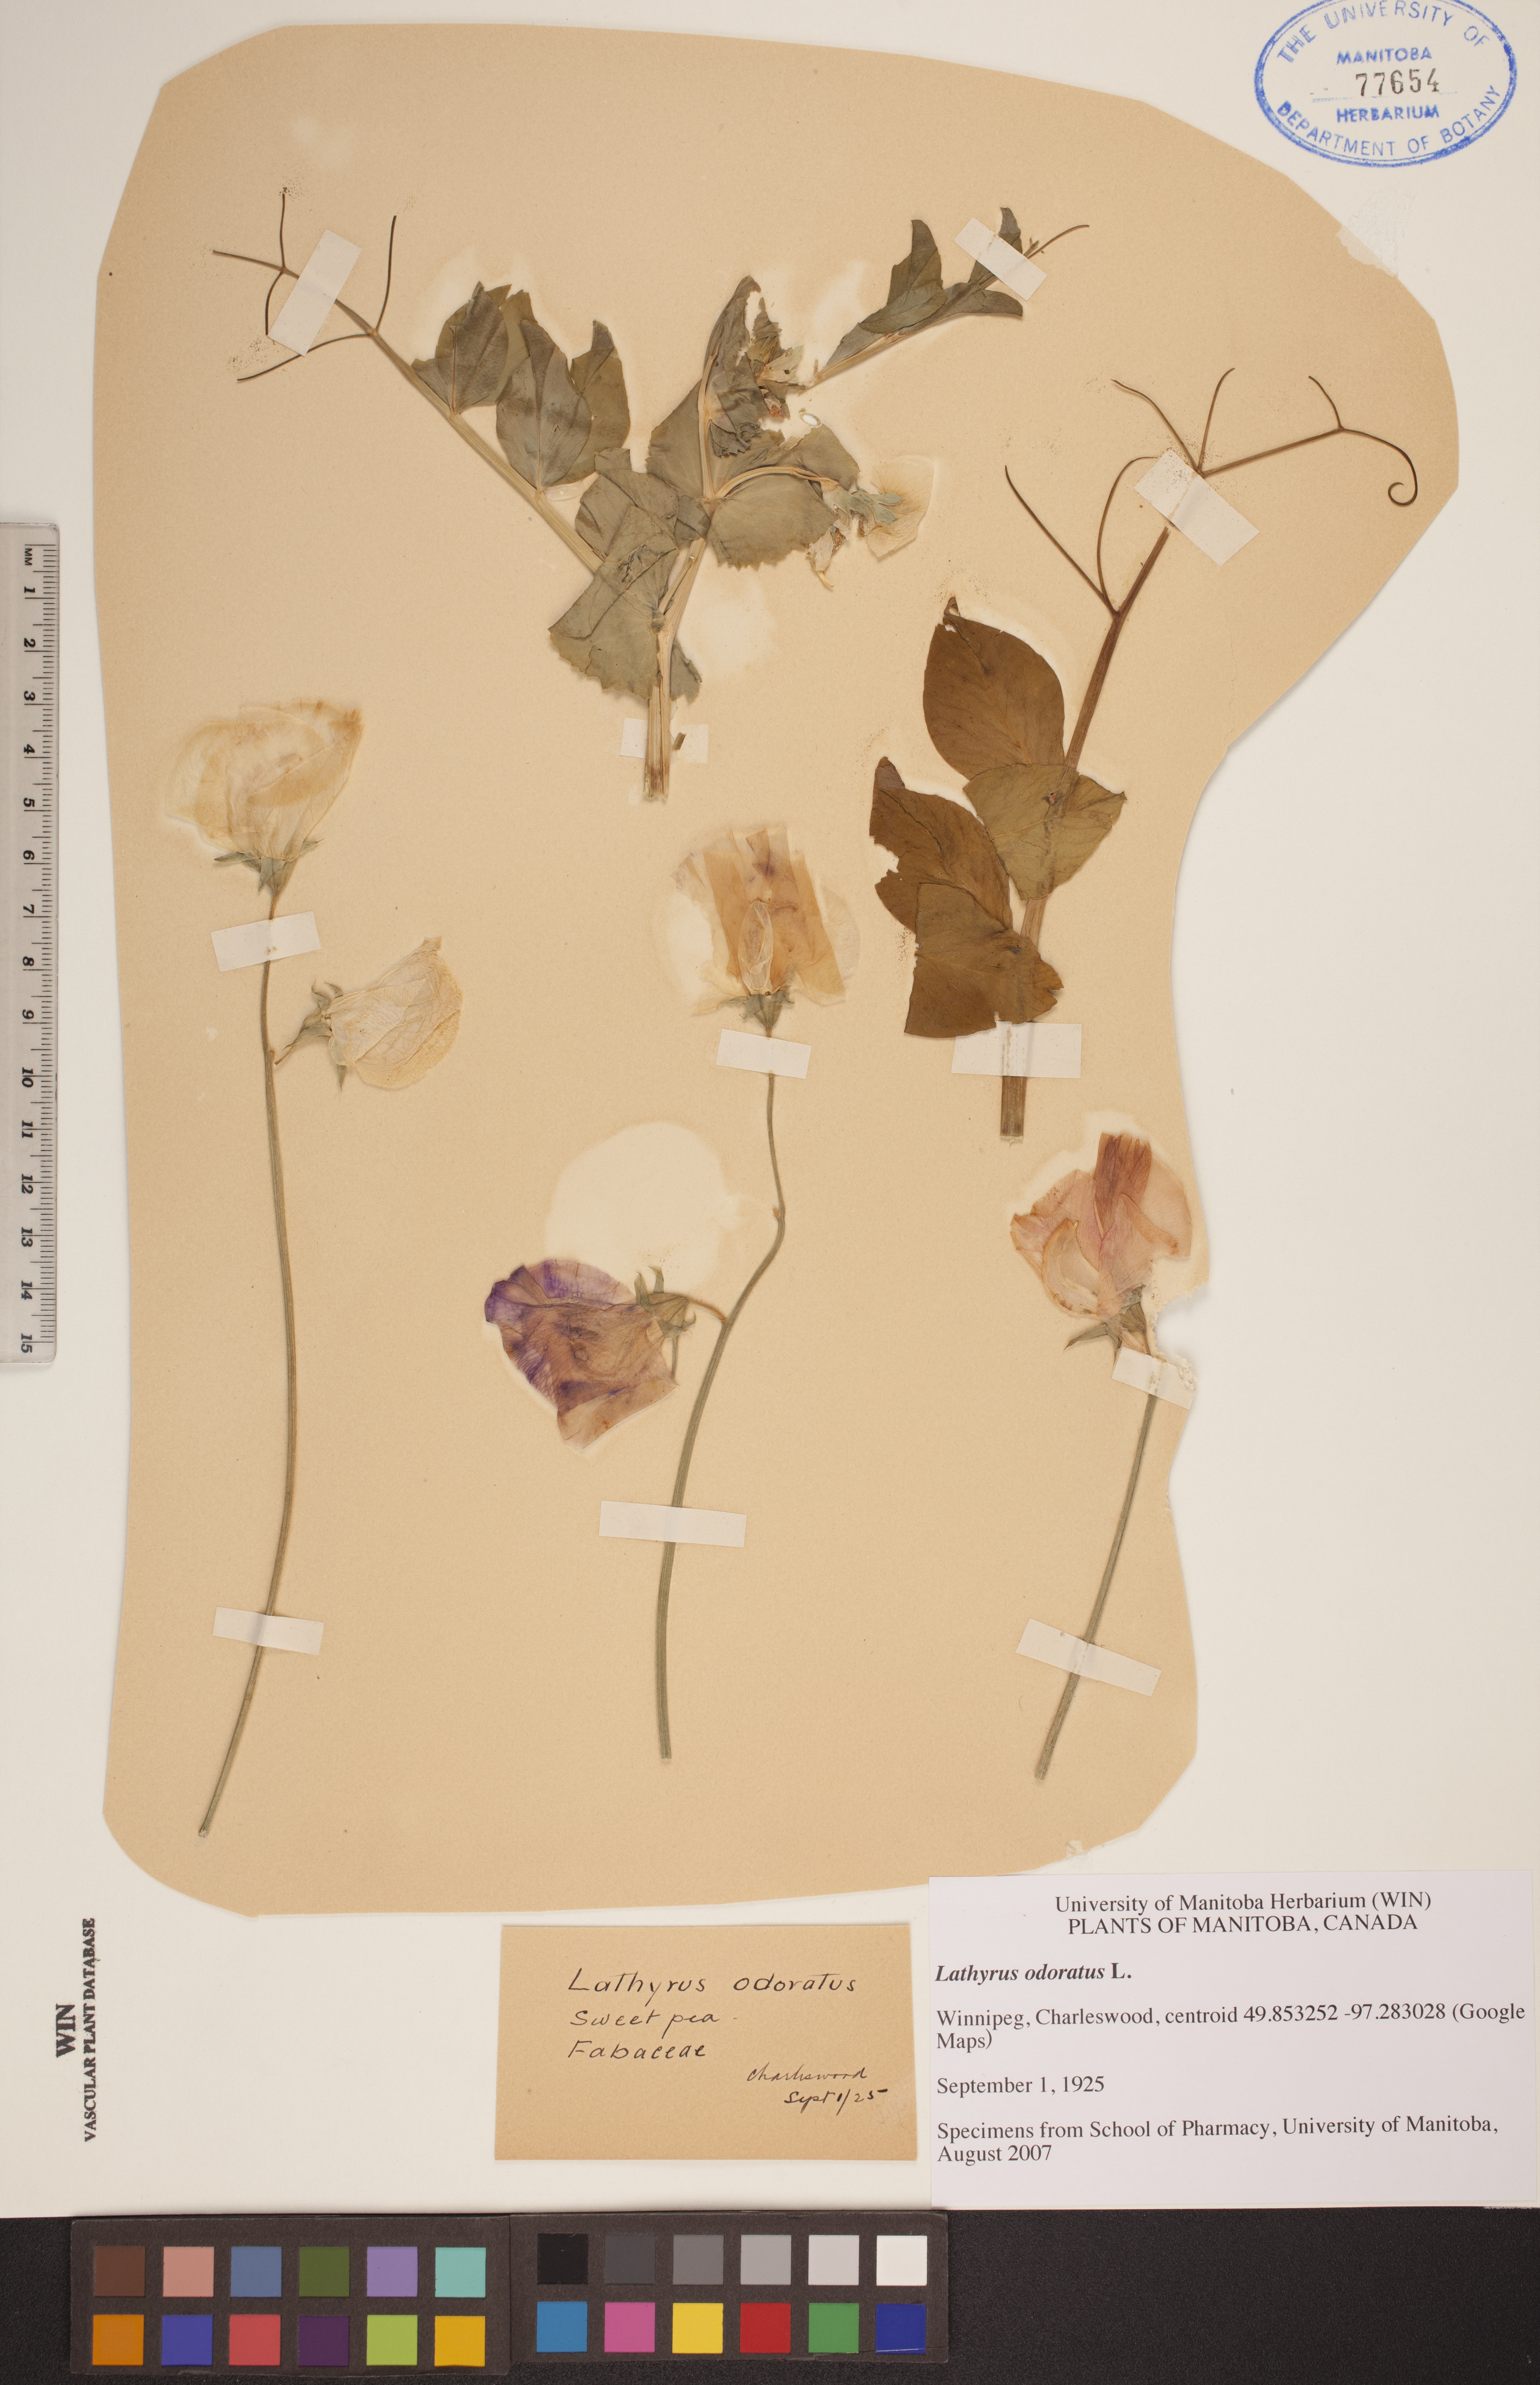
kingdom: Plantae
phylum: Tracheophyta
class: Magnoliopsida
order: Fabales
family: Fabaceae
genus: Lathyrus
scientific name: Lathyrus odoratus
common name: Sweet pea
